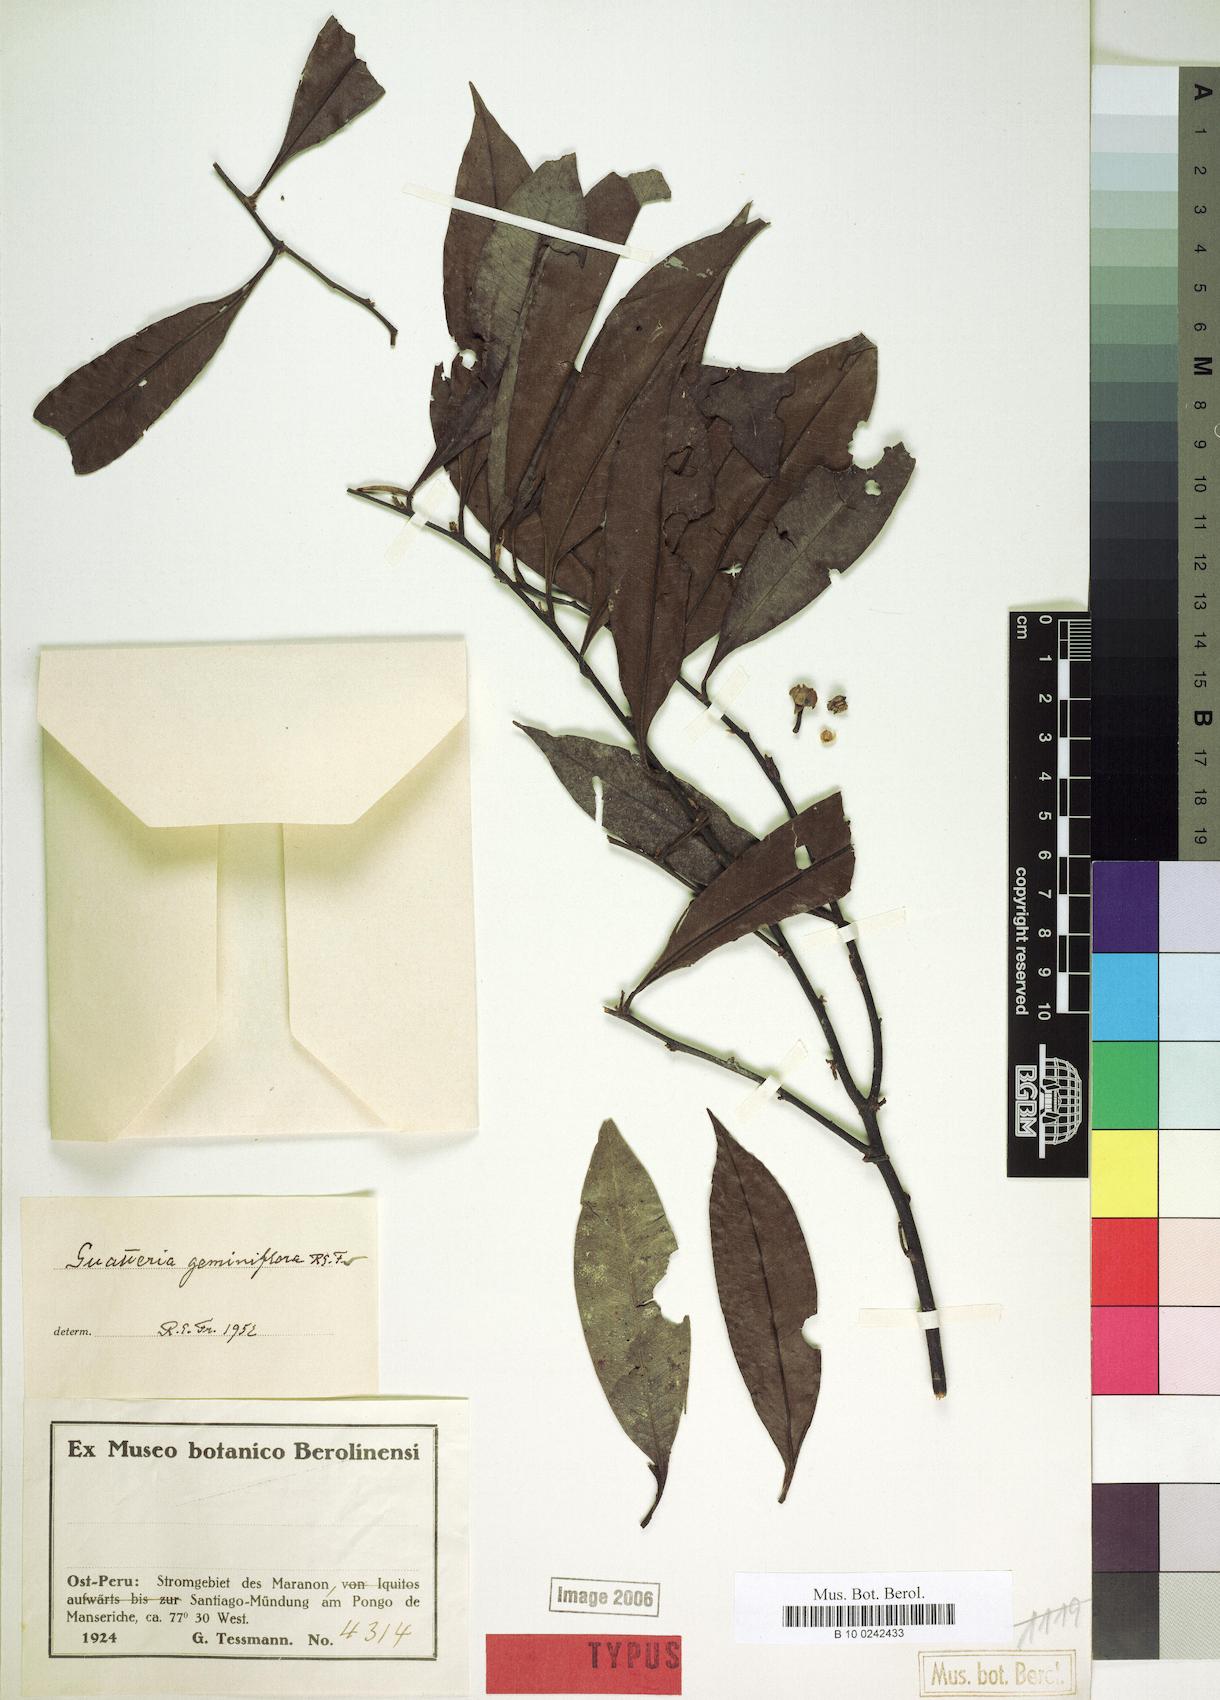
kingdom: Plantae
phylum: Tracheophyta
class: Magnoliopsida
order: Magnoliales
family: Annonaceae
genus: Guatteria
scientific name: Guatteria modesta
